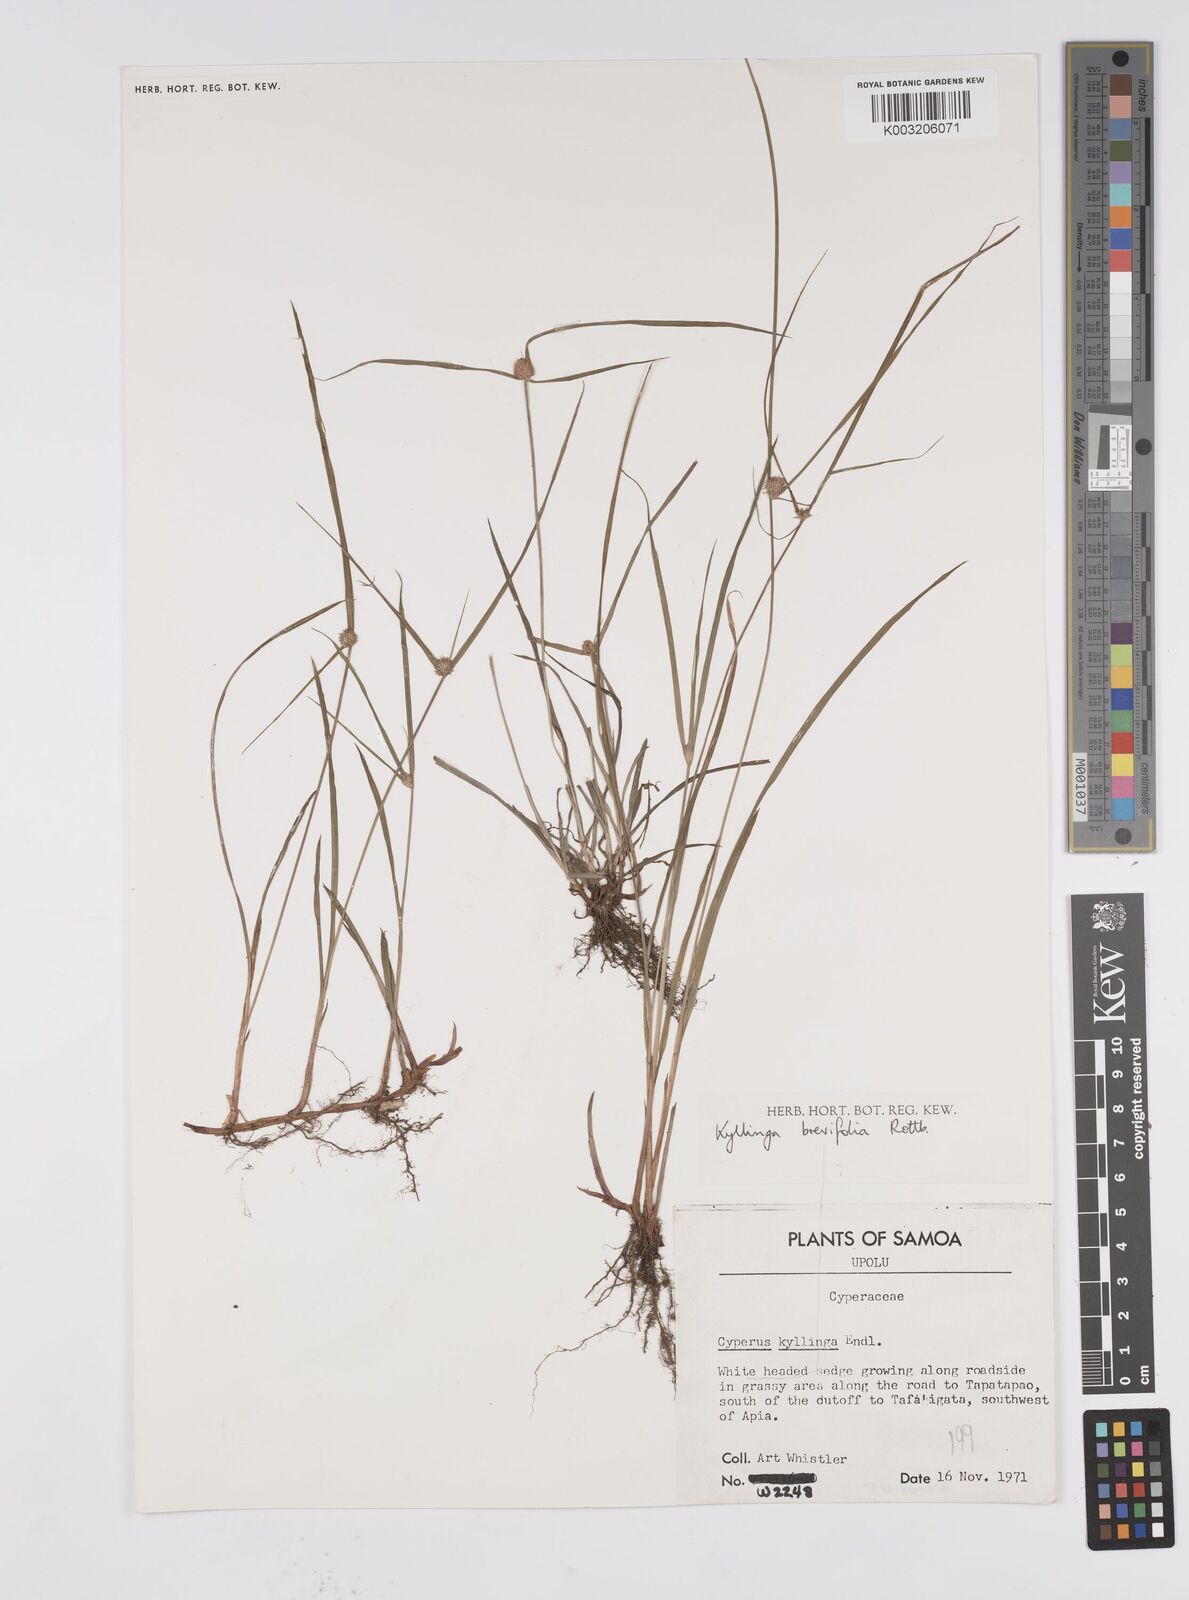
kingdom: Plantae
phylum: Tracheophyta
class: Liliopsida
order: Poales
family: Cyperaceae
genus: Cyperus
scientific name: Cyperus brevifolius
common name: Globe kyllinga
